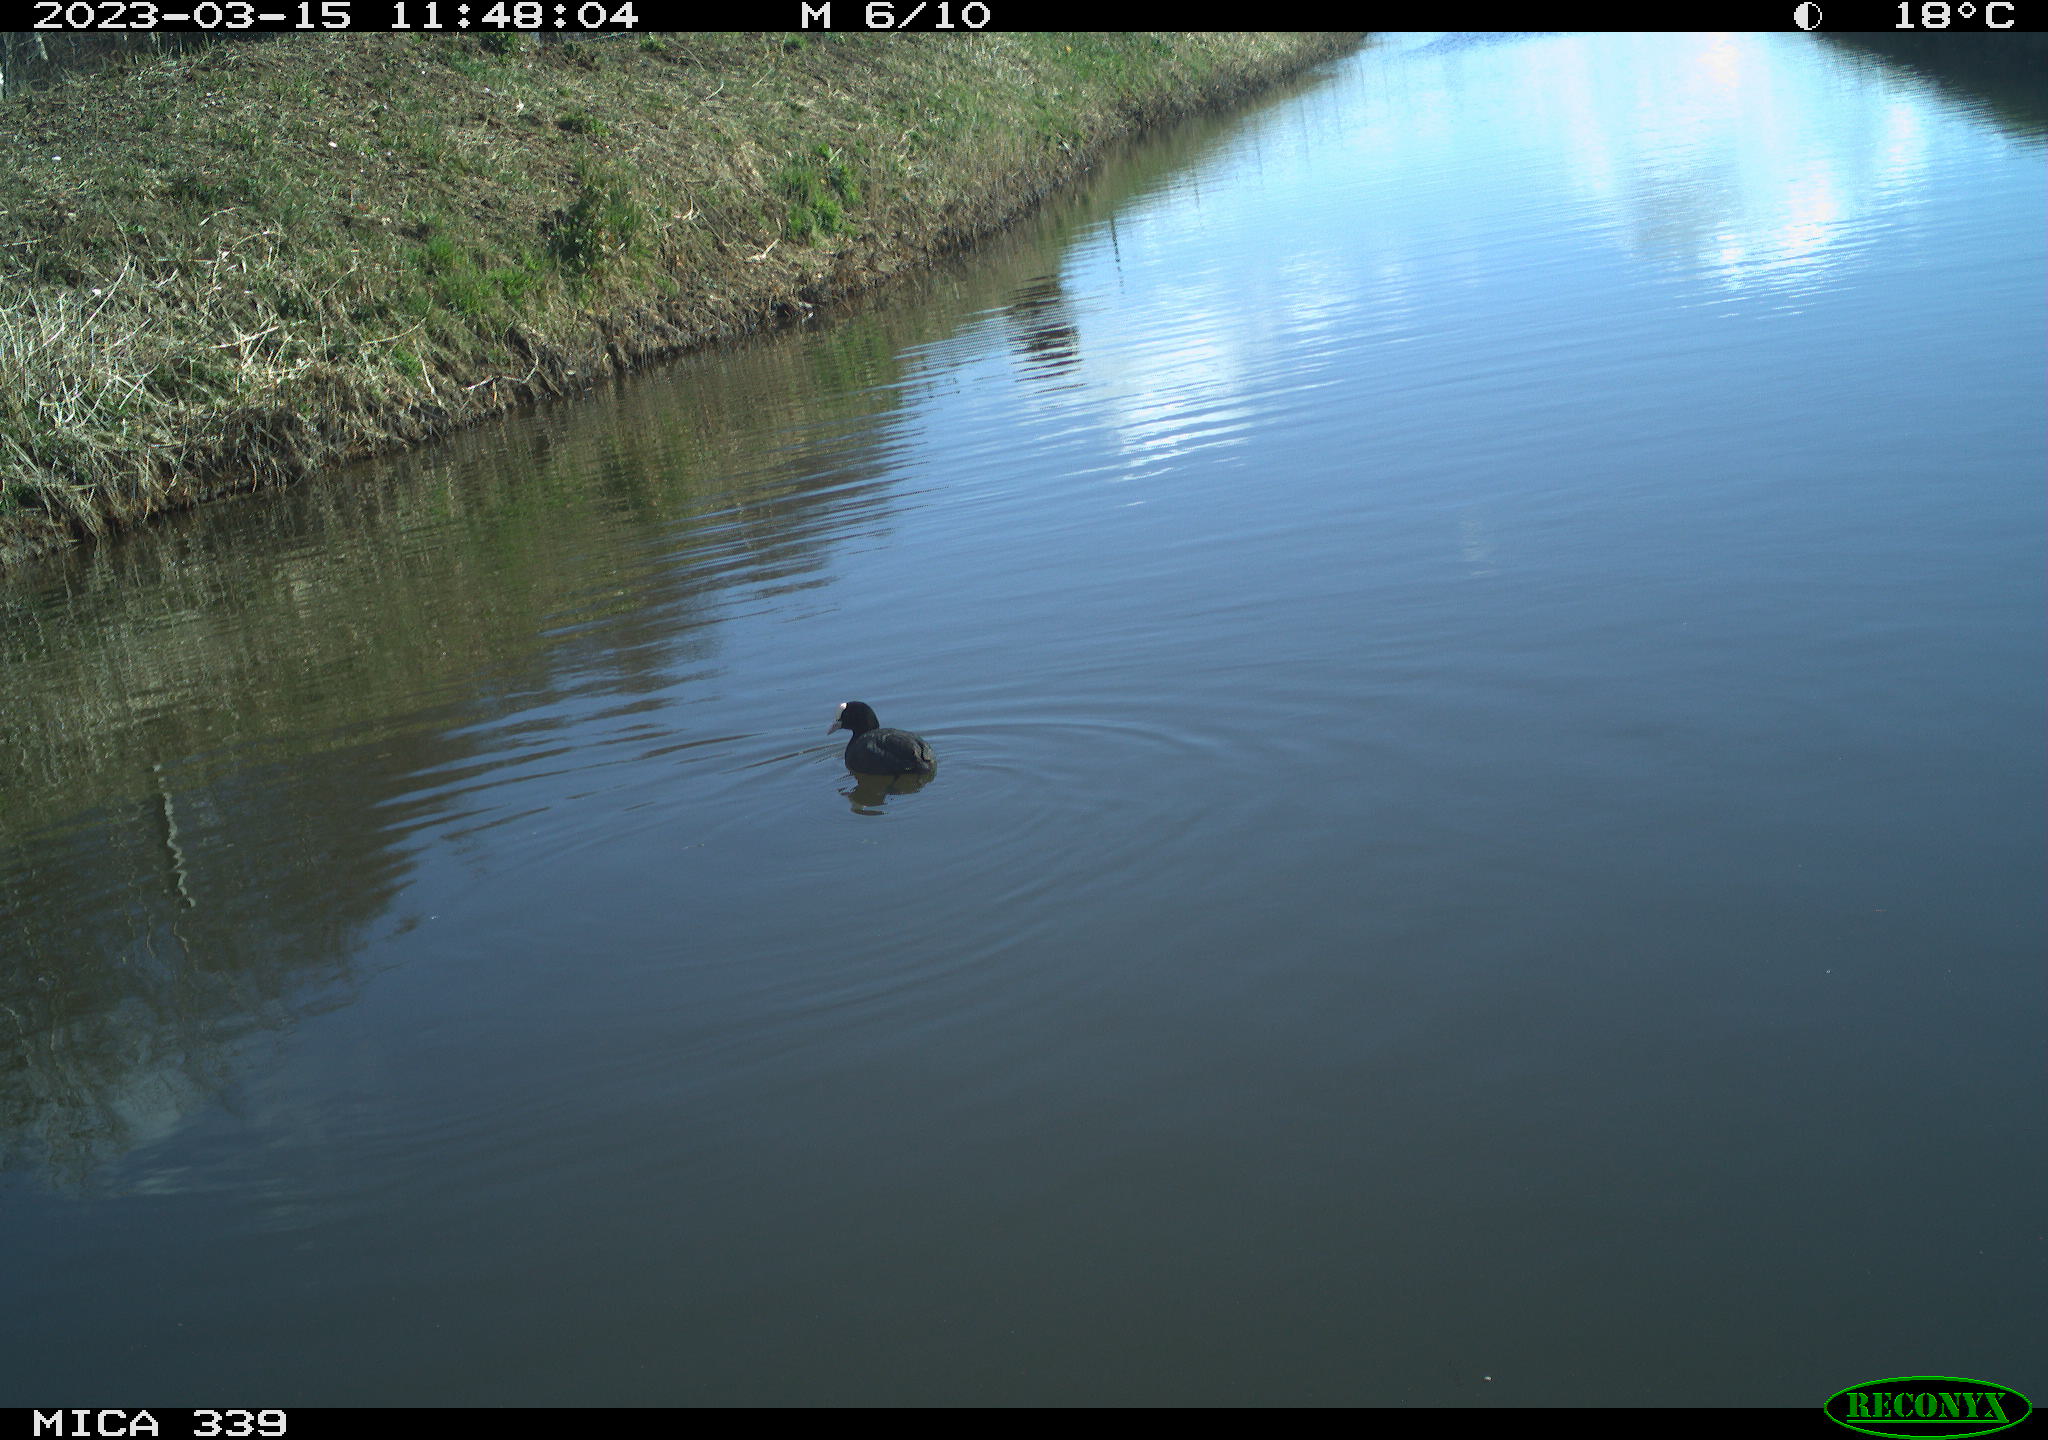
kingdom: Animalia
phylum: Chordata
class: Aves
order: Anseriformes
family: Anatidae
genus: Anas
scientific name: Anas
